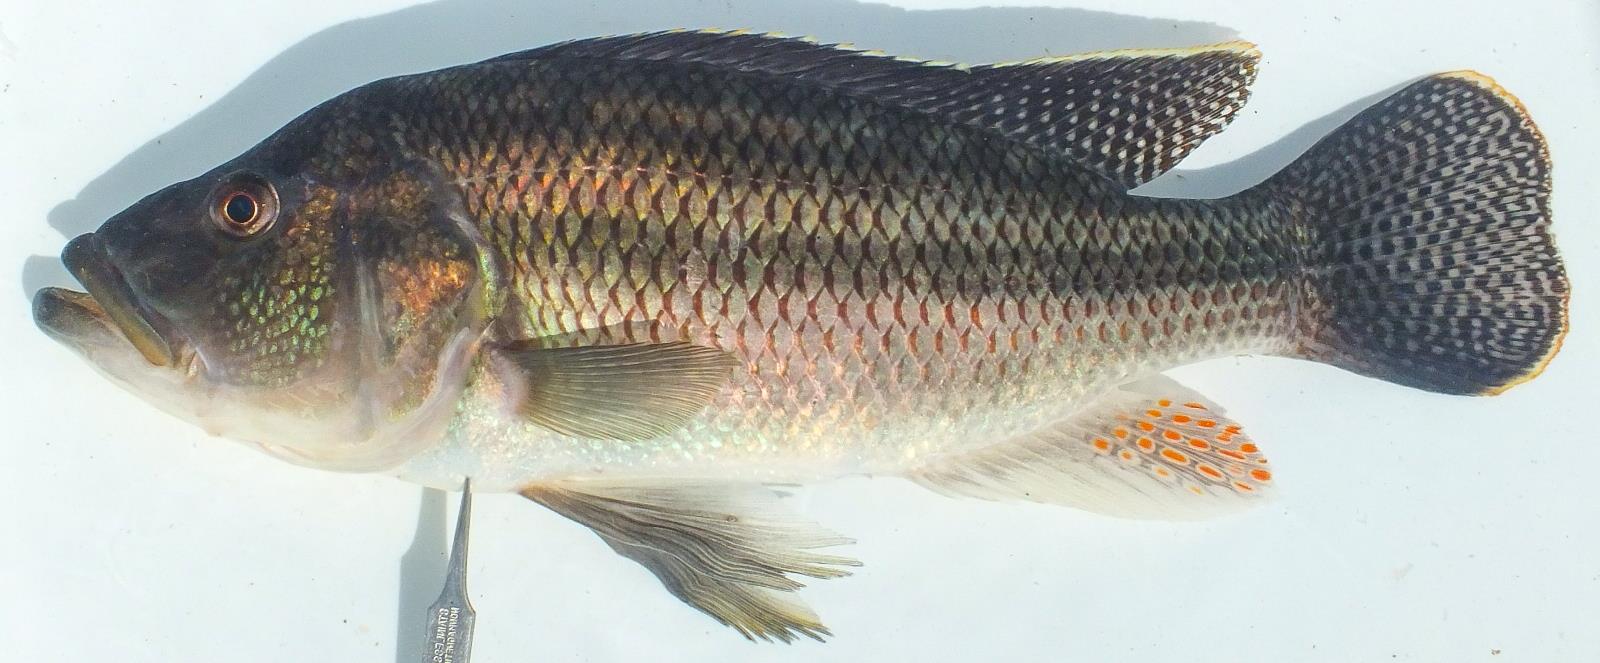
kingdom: Animalia
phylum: Chordata
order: Perciformes
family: Cichlidae
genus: Serranochromis
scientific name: Serranochromis robustus
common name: Yellow-belly bream
